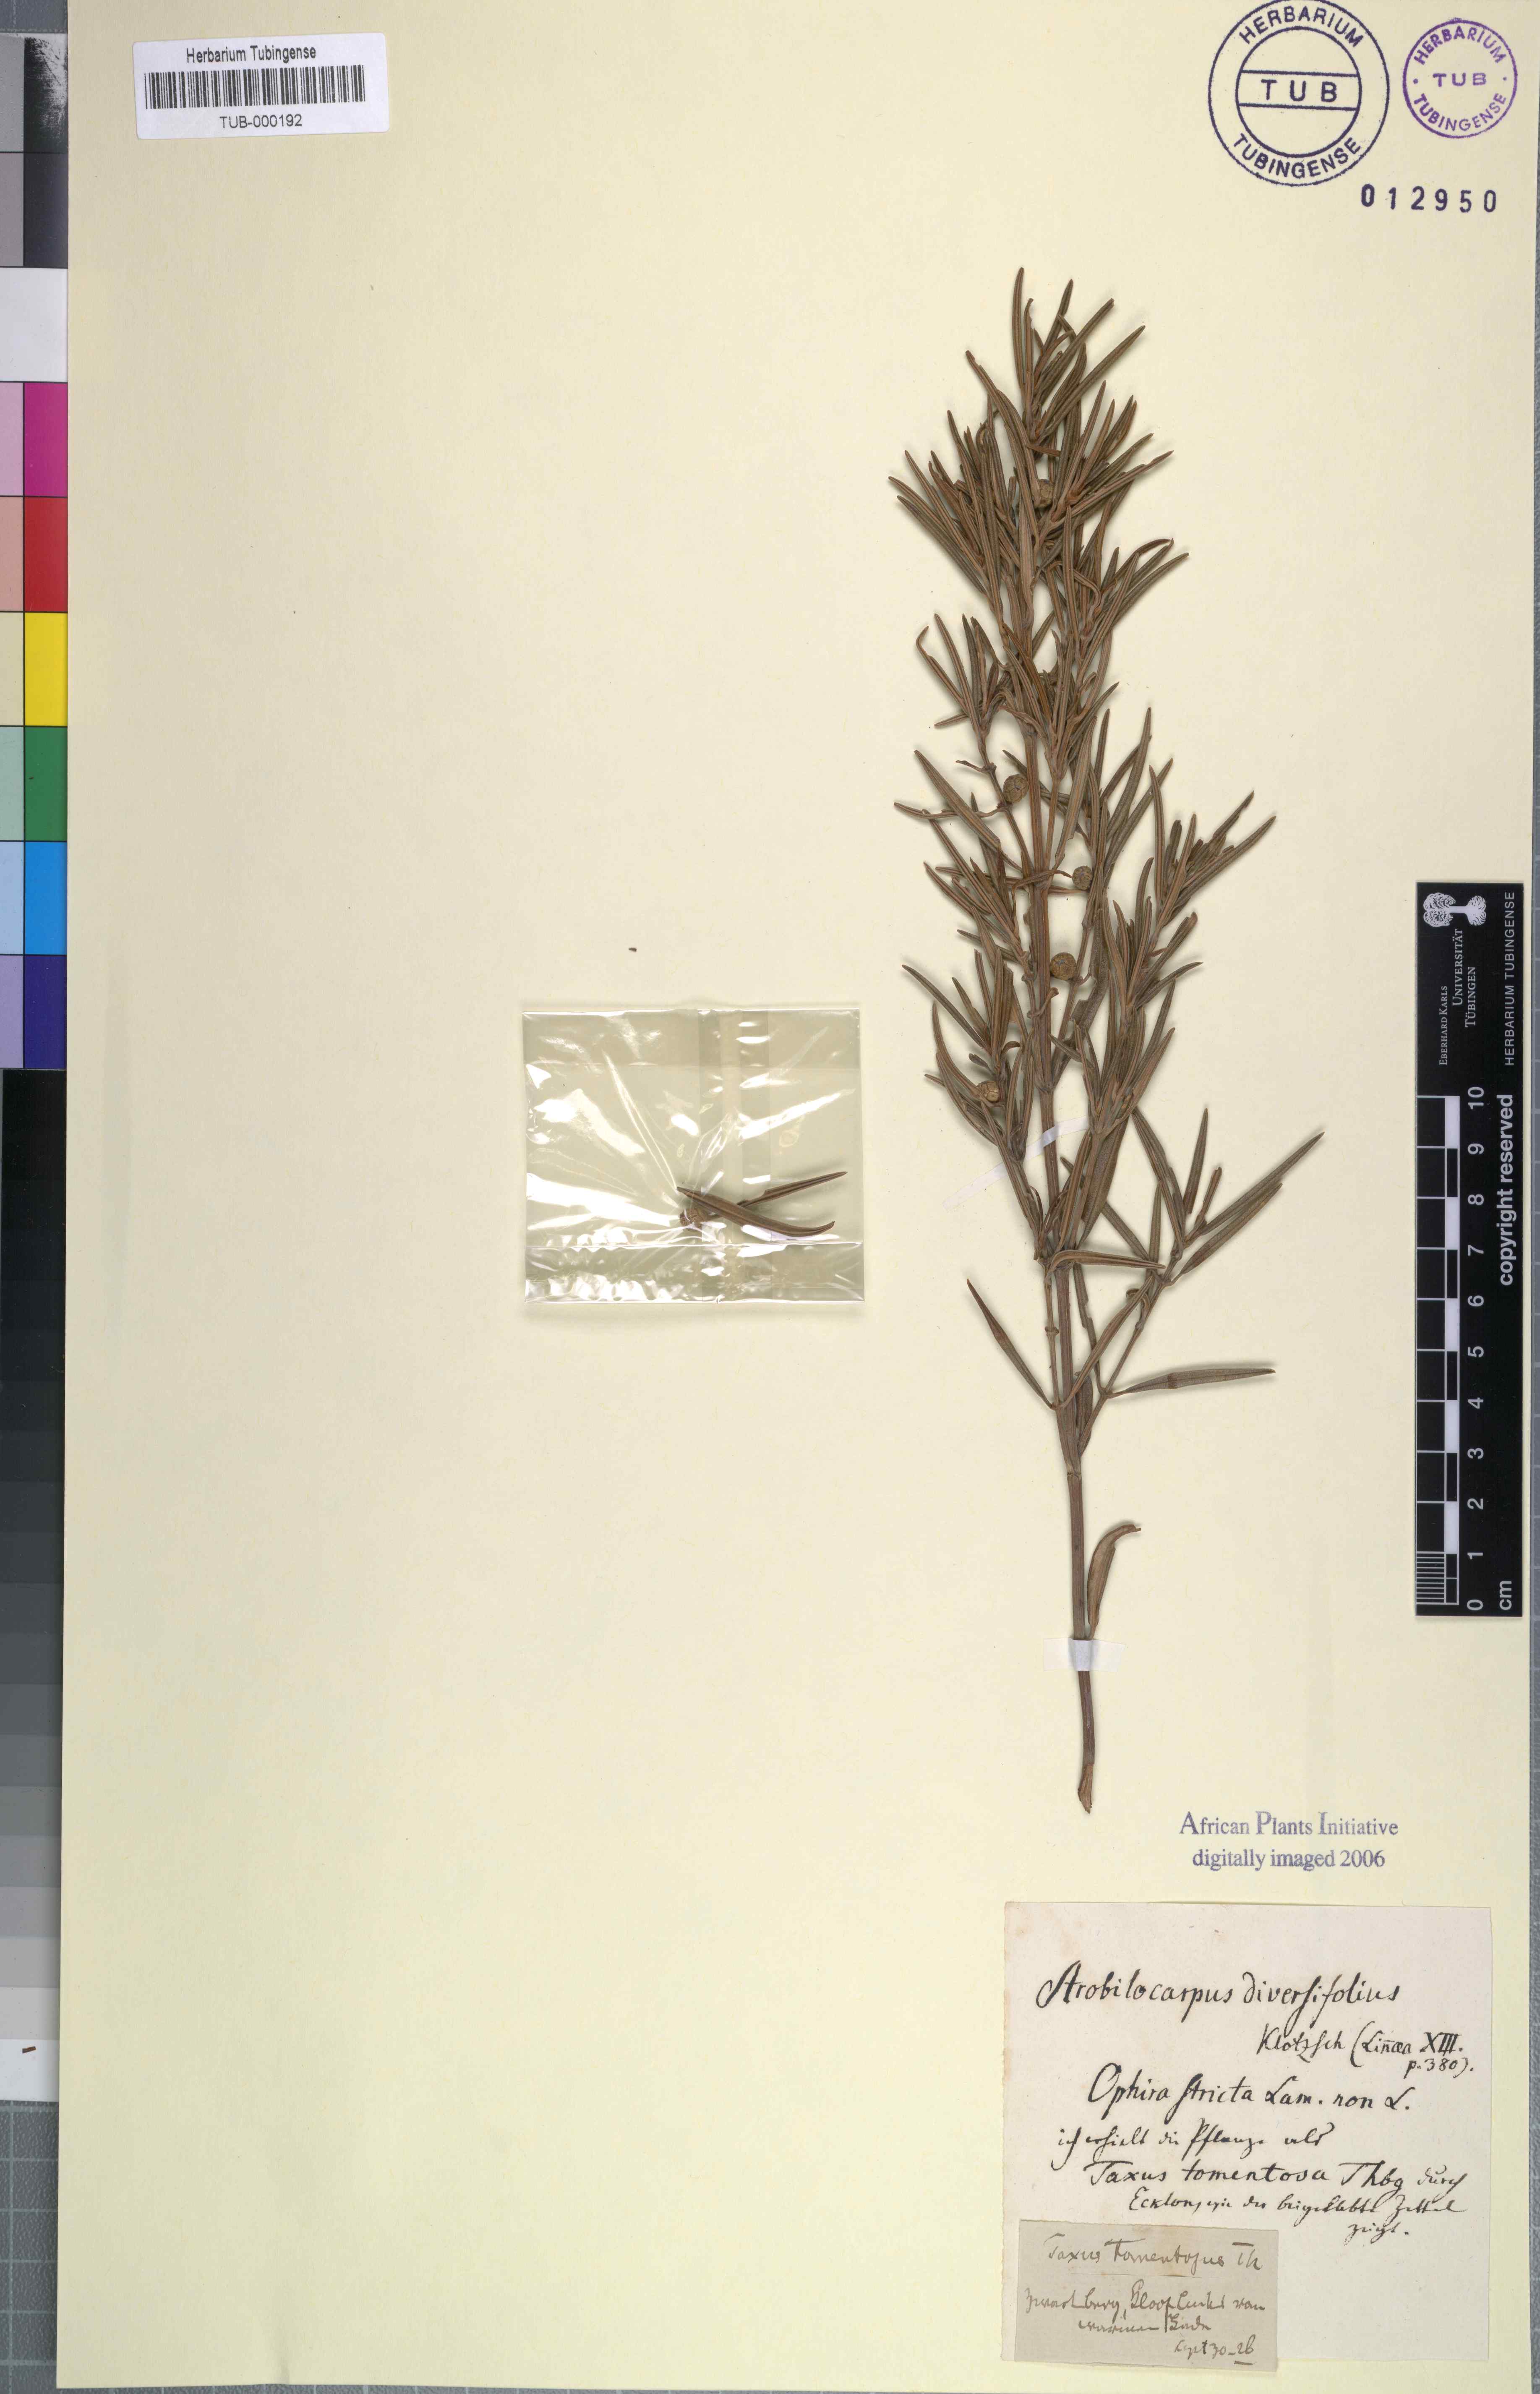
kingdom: Plantae
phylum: Tracheophyta
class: Magnoliopsida
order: Cornales
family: Grubbiaceae
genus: Grubbia
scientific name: Grubbia rosmarinifolia
